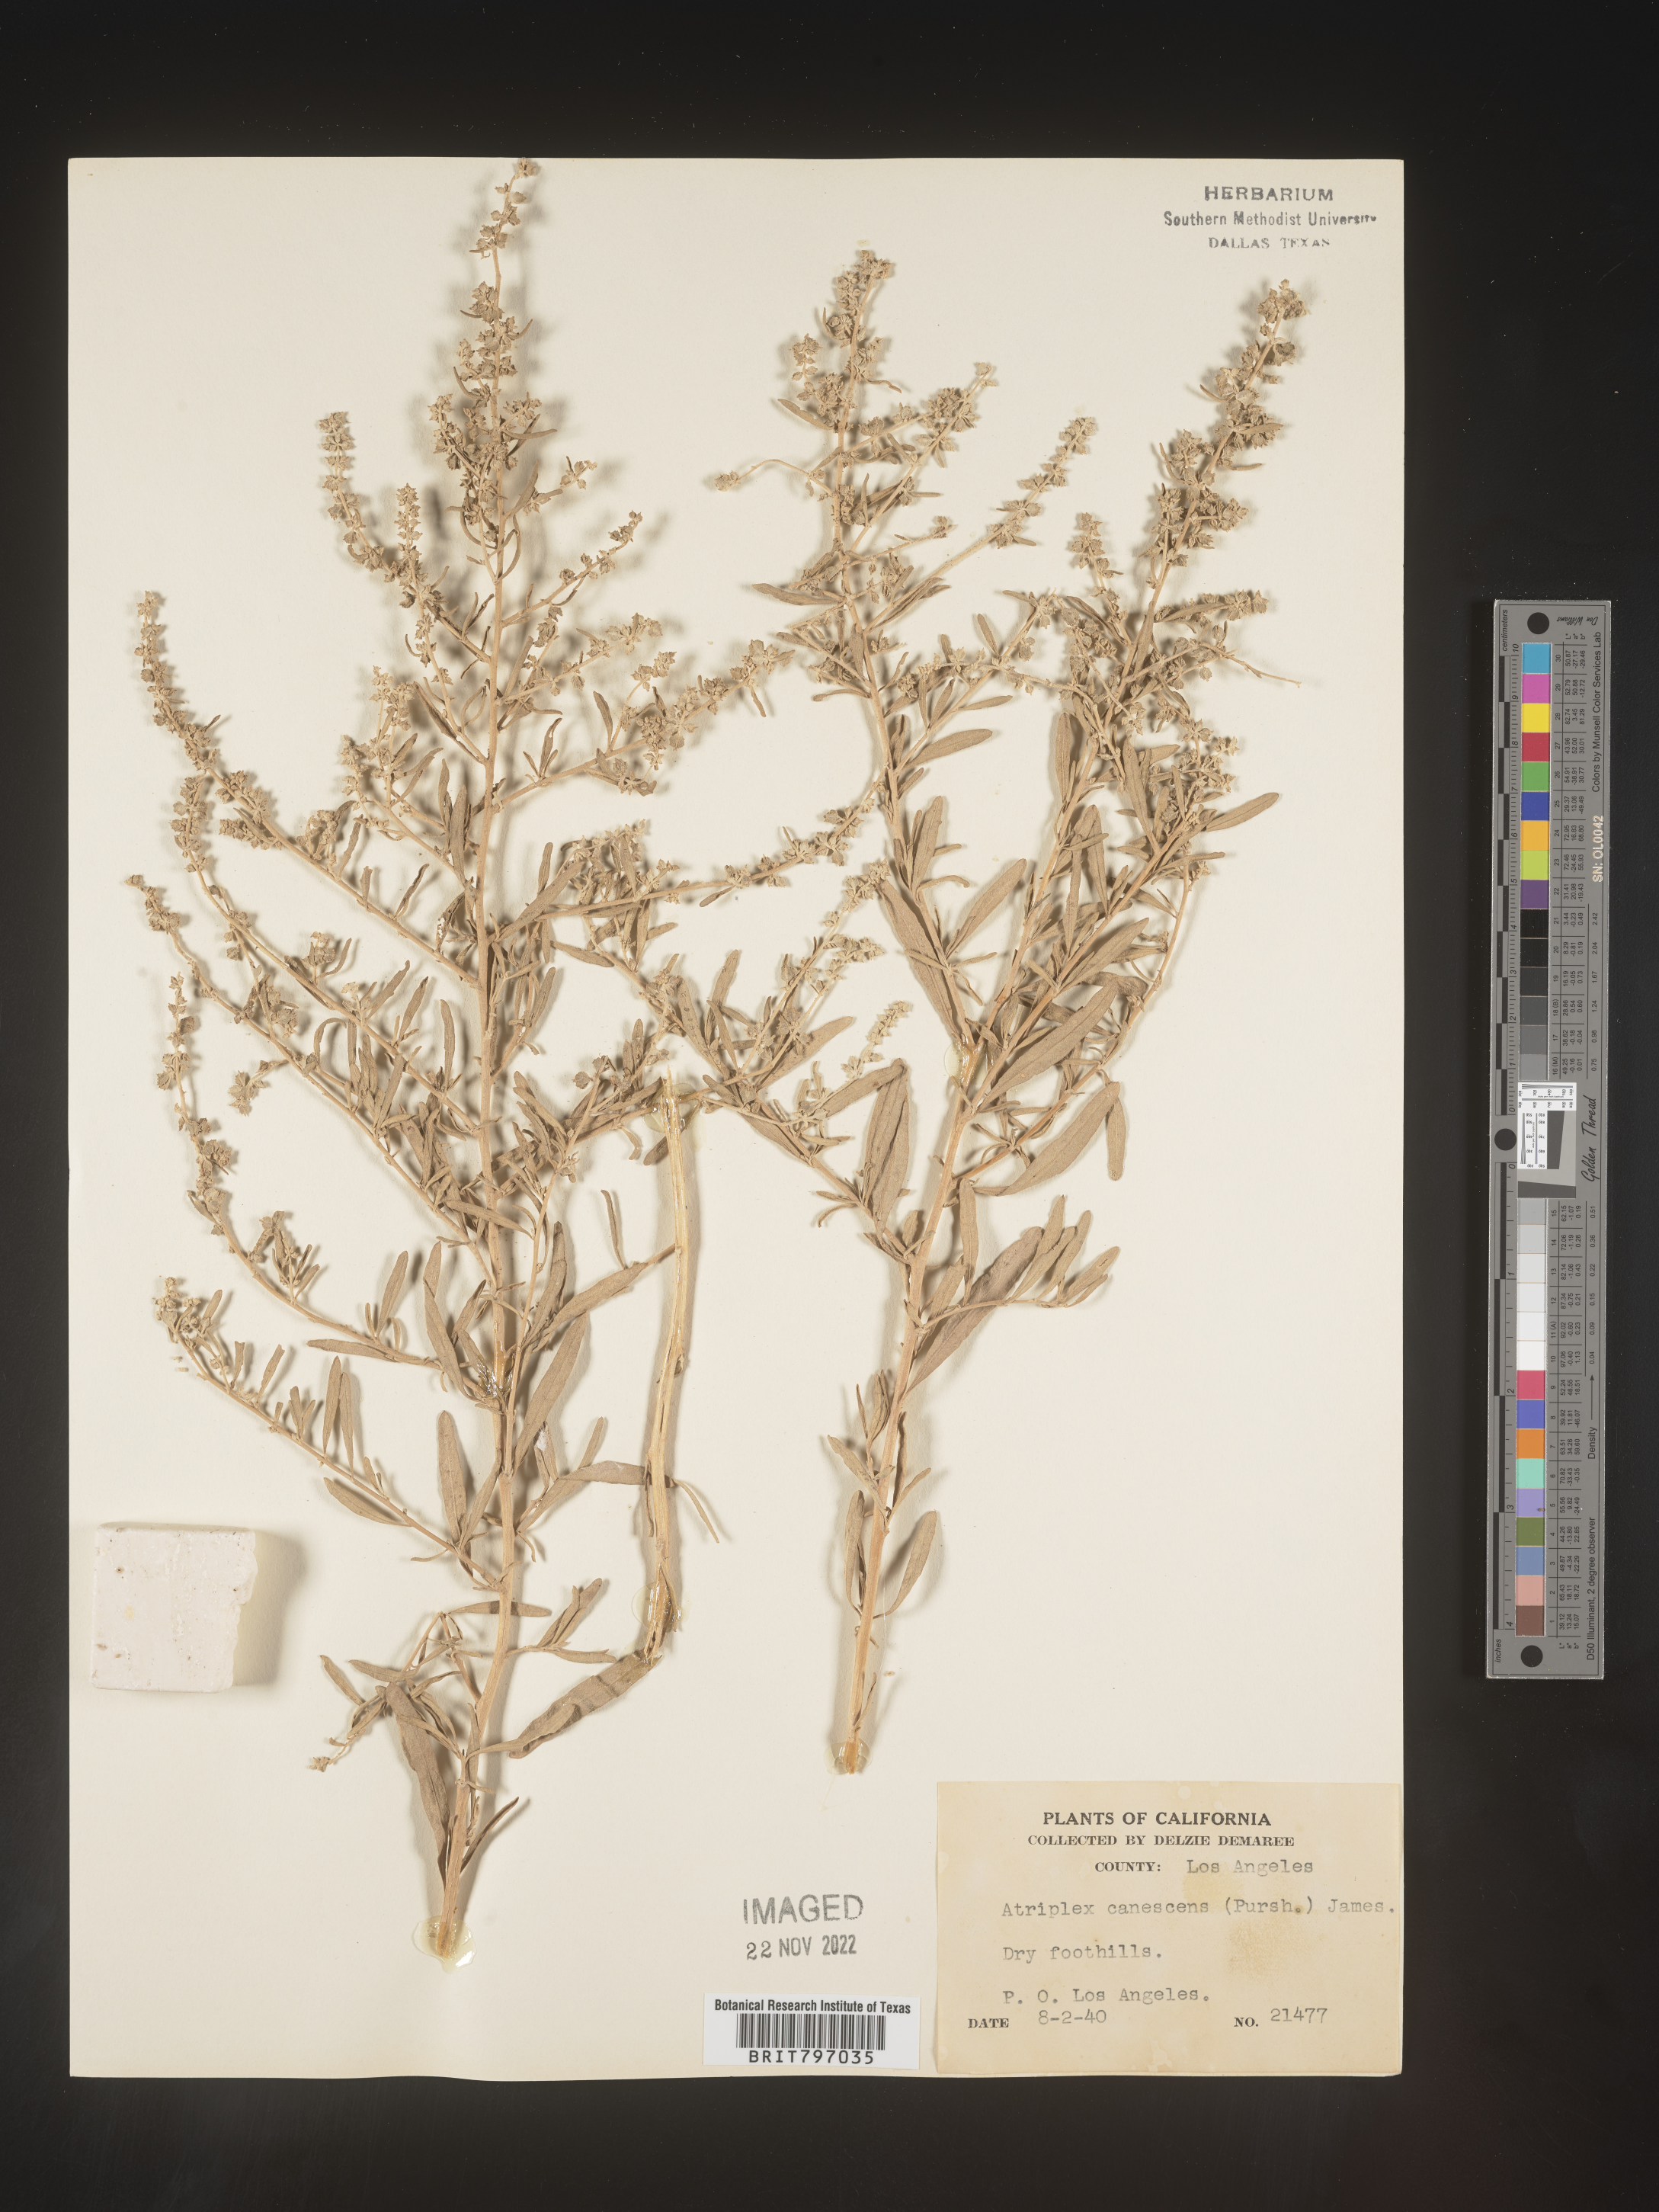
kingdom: Plantae
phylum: Tracheophyta
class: Magnoliopsida
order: Caryophyllales
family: Amaranthaceae
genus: Atriplex
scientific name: Atriplex canescens
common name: Four-wing saltbush
